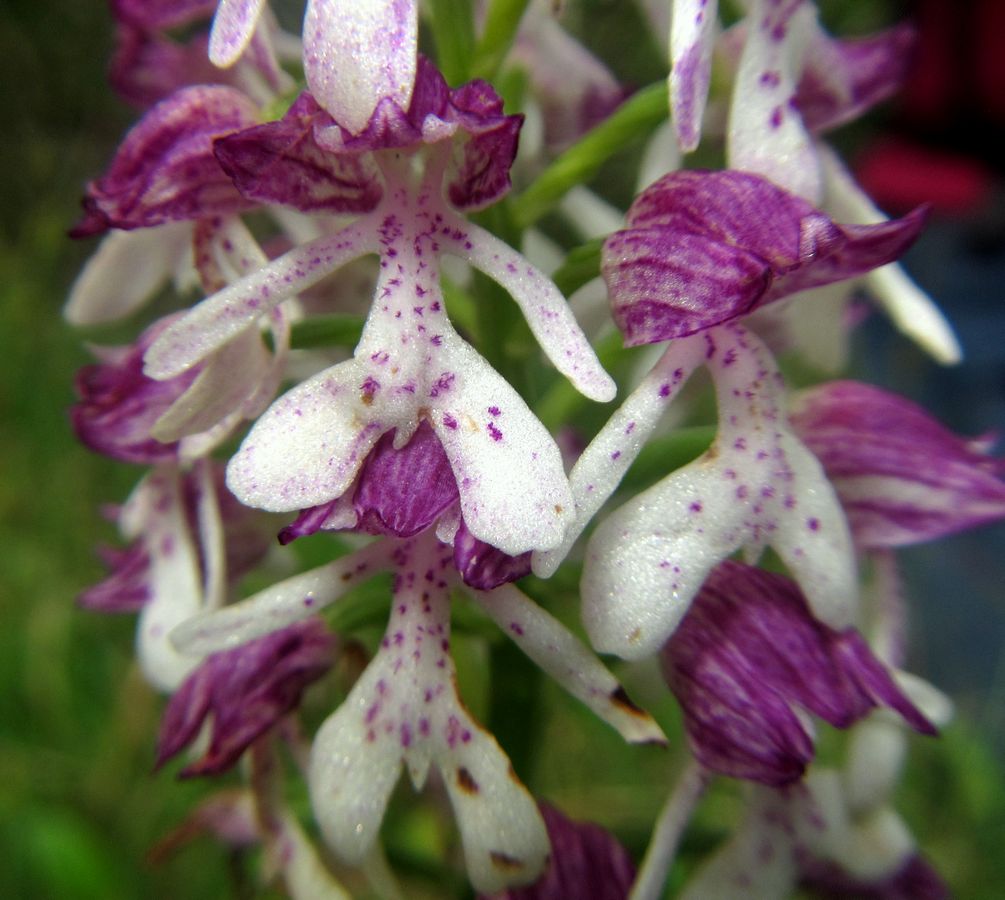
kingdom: Plantae
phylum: Tracheophyta
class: Liliopsida
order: Asparagales
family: Orchidaceae
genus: Orchis
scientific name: Orchis purpurea
